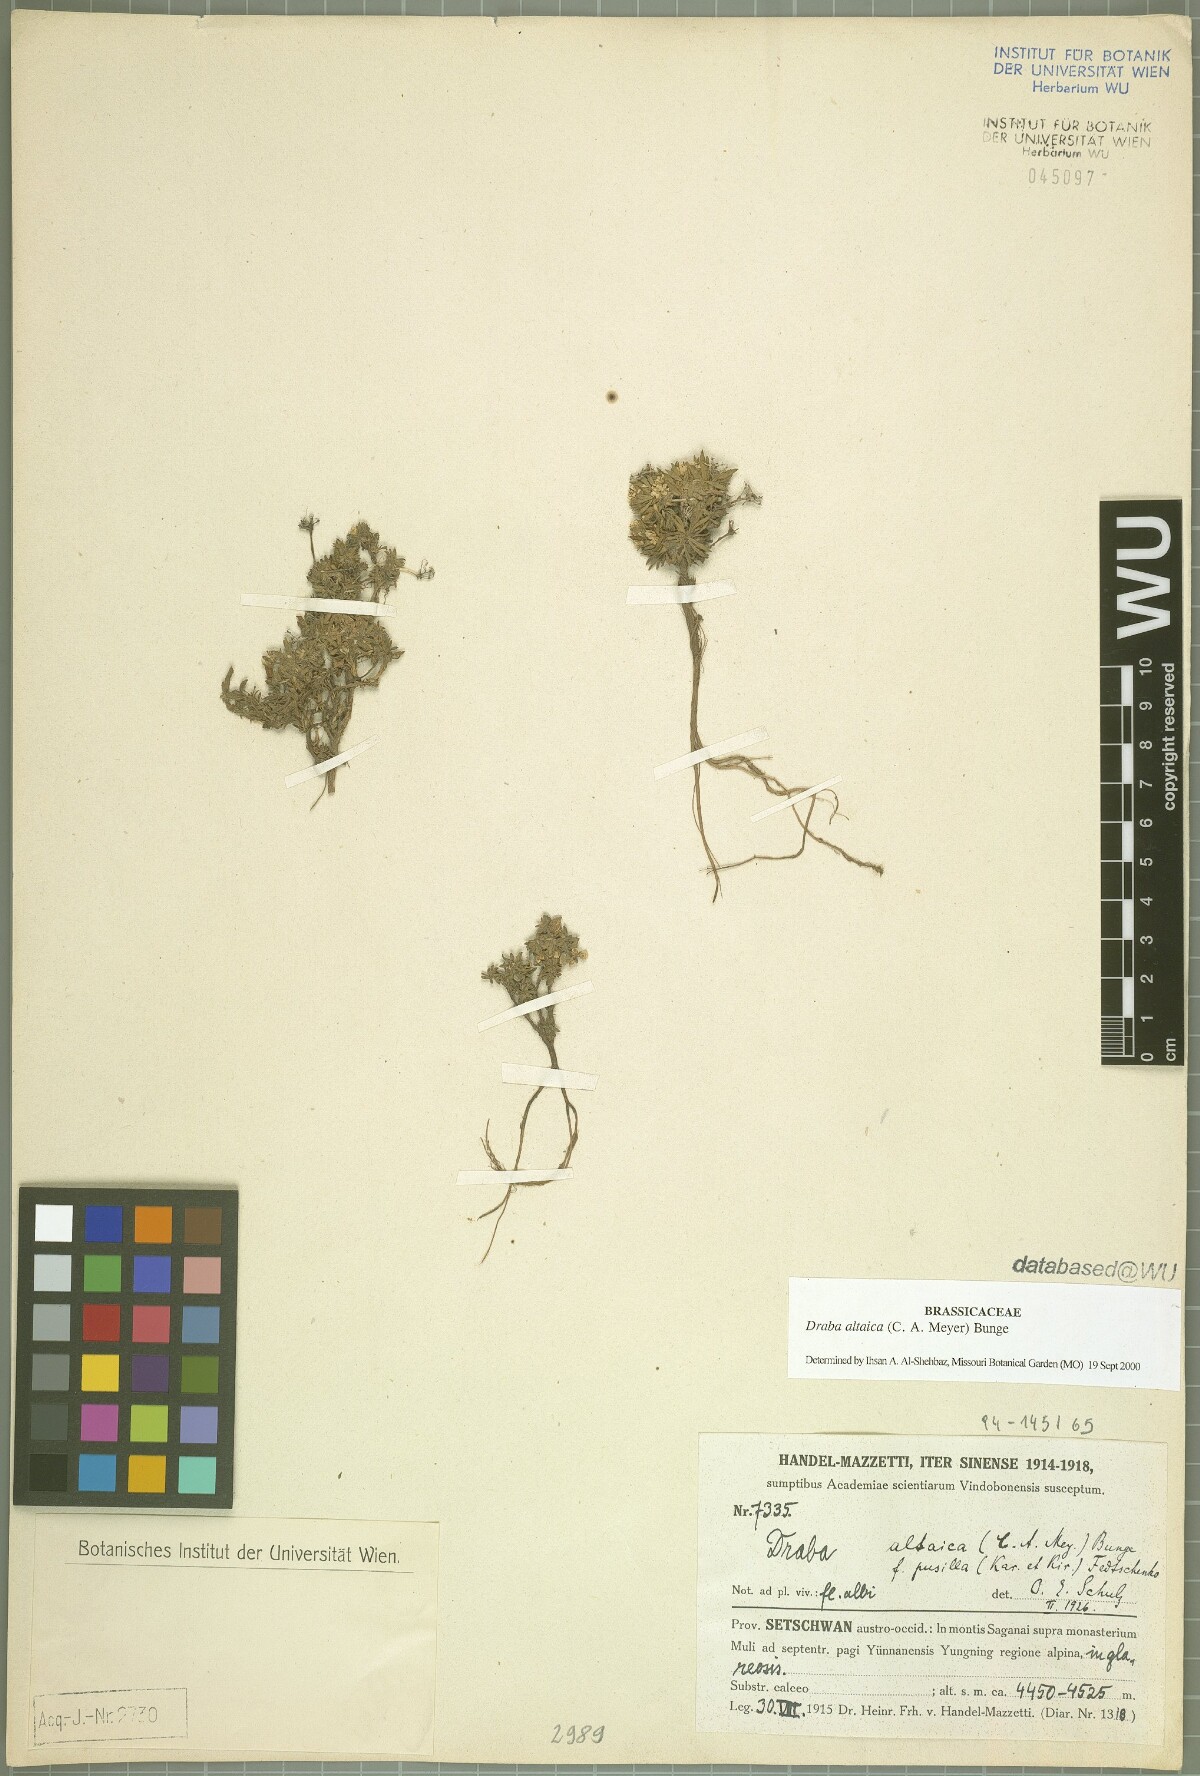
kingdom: Plantae
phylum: Tracheophyta
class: Magnoliopsida
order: Brassicales
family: Brassicaceae
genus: Draba
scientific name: Draba altaica
